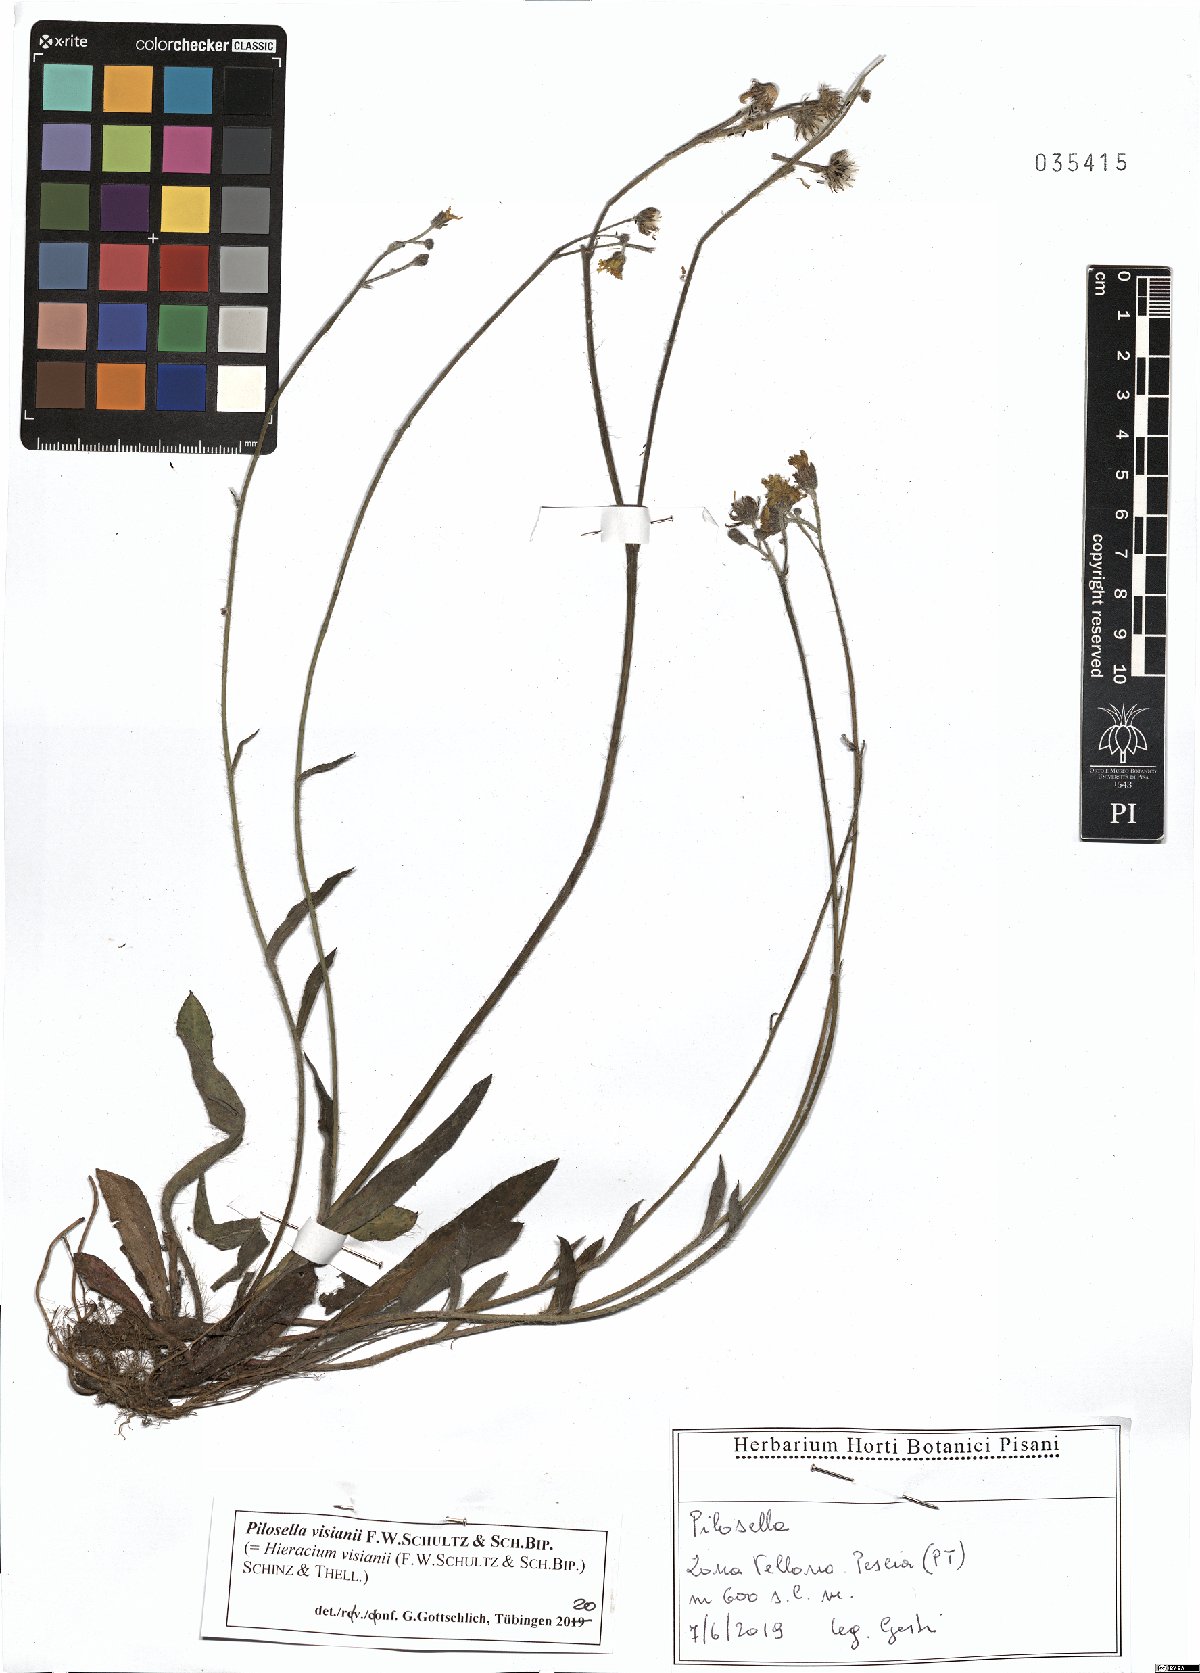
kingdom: Plantae
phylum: Tracheophyta
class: Magnoliopsida
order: Asterales
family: Asteraceae
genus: Pilosella
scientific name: Pilosella visianii
